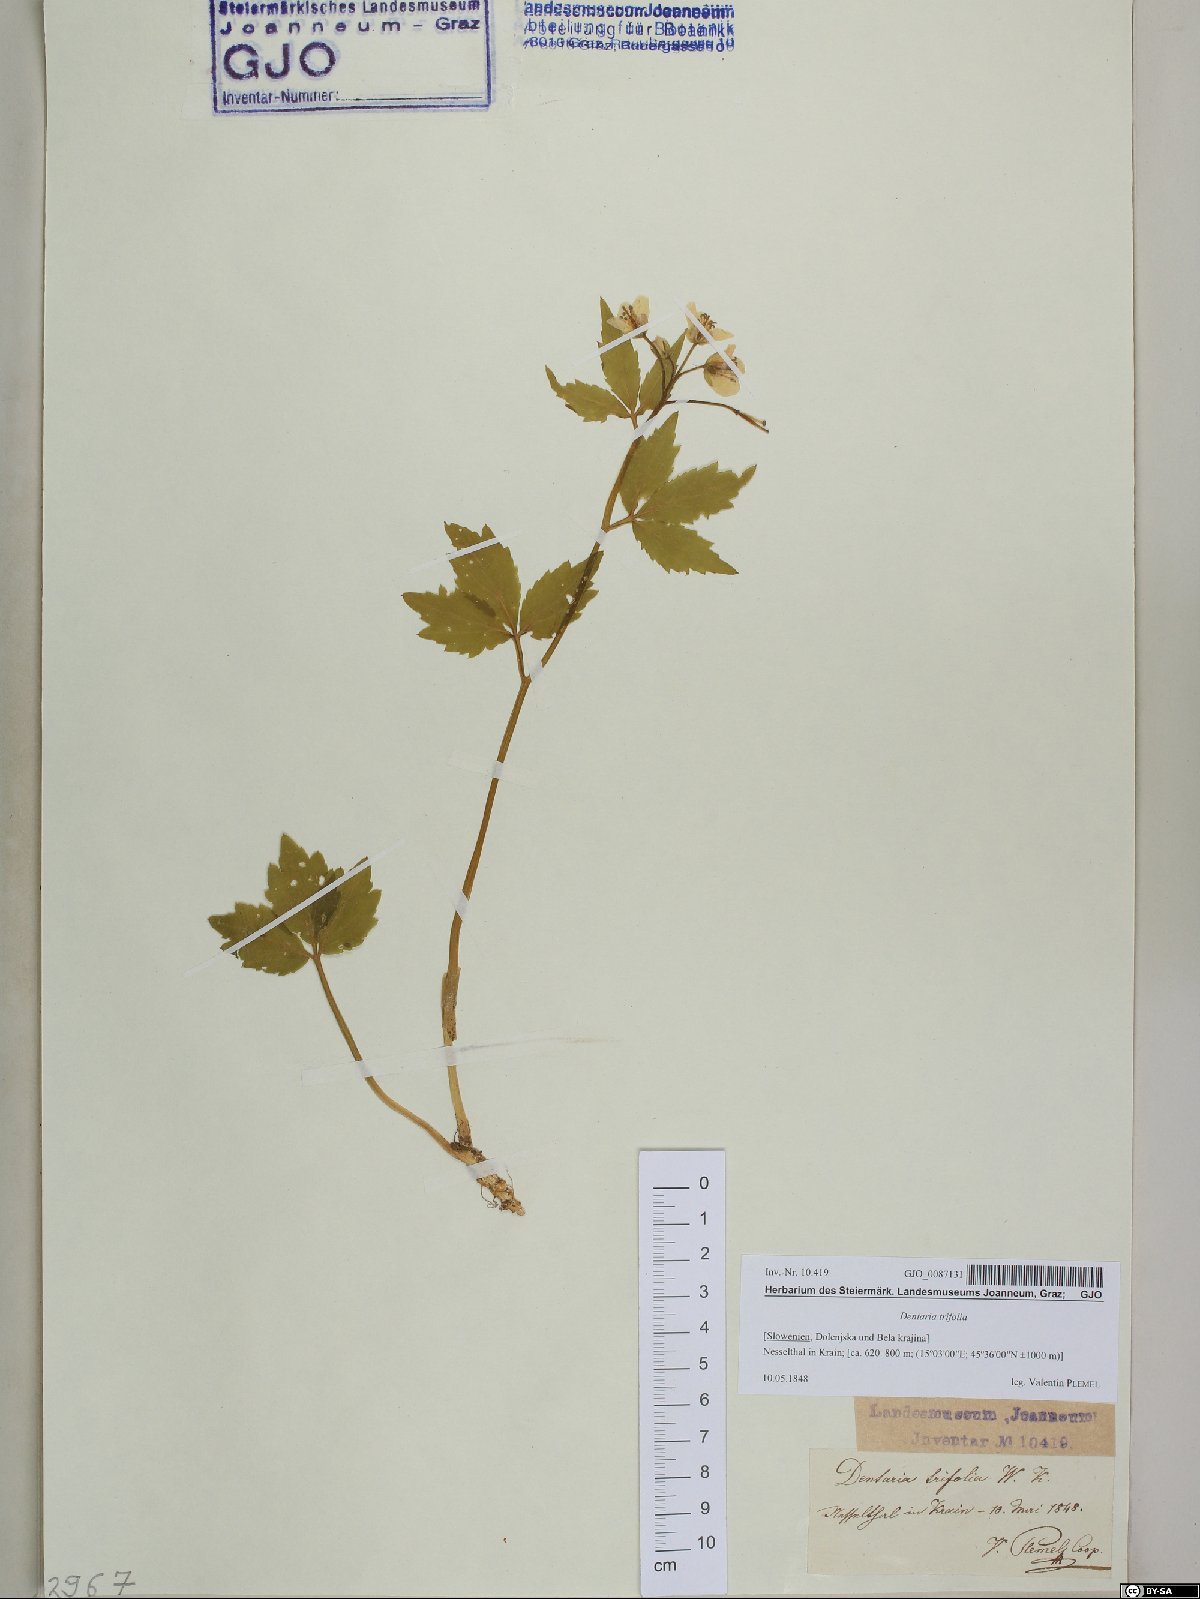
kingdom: Plantae
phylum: Tracheophyta
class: Magnoliopsida
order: Brassicales
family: Brassicaceae
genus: Cardamine
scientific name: Cardamine waldsteinii
